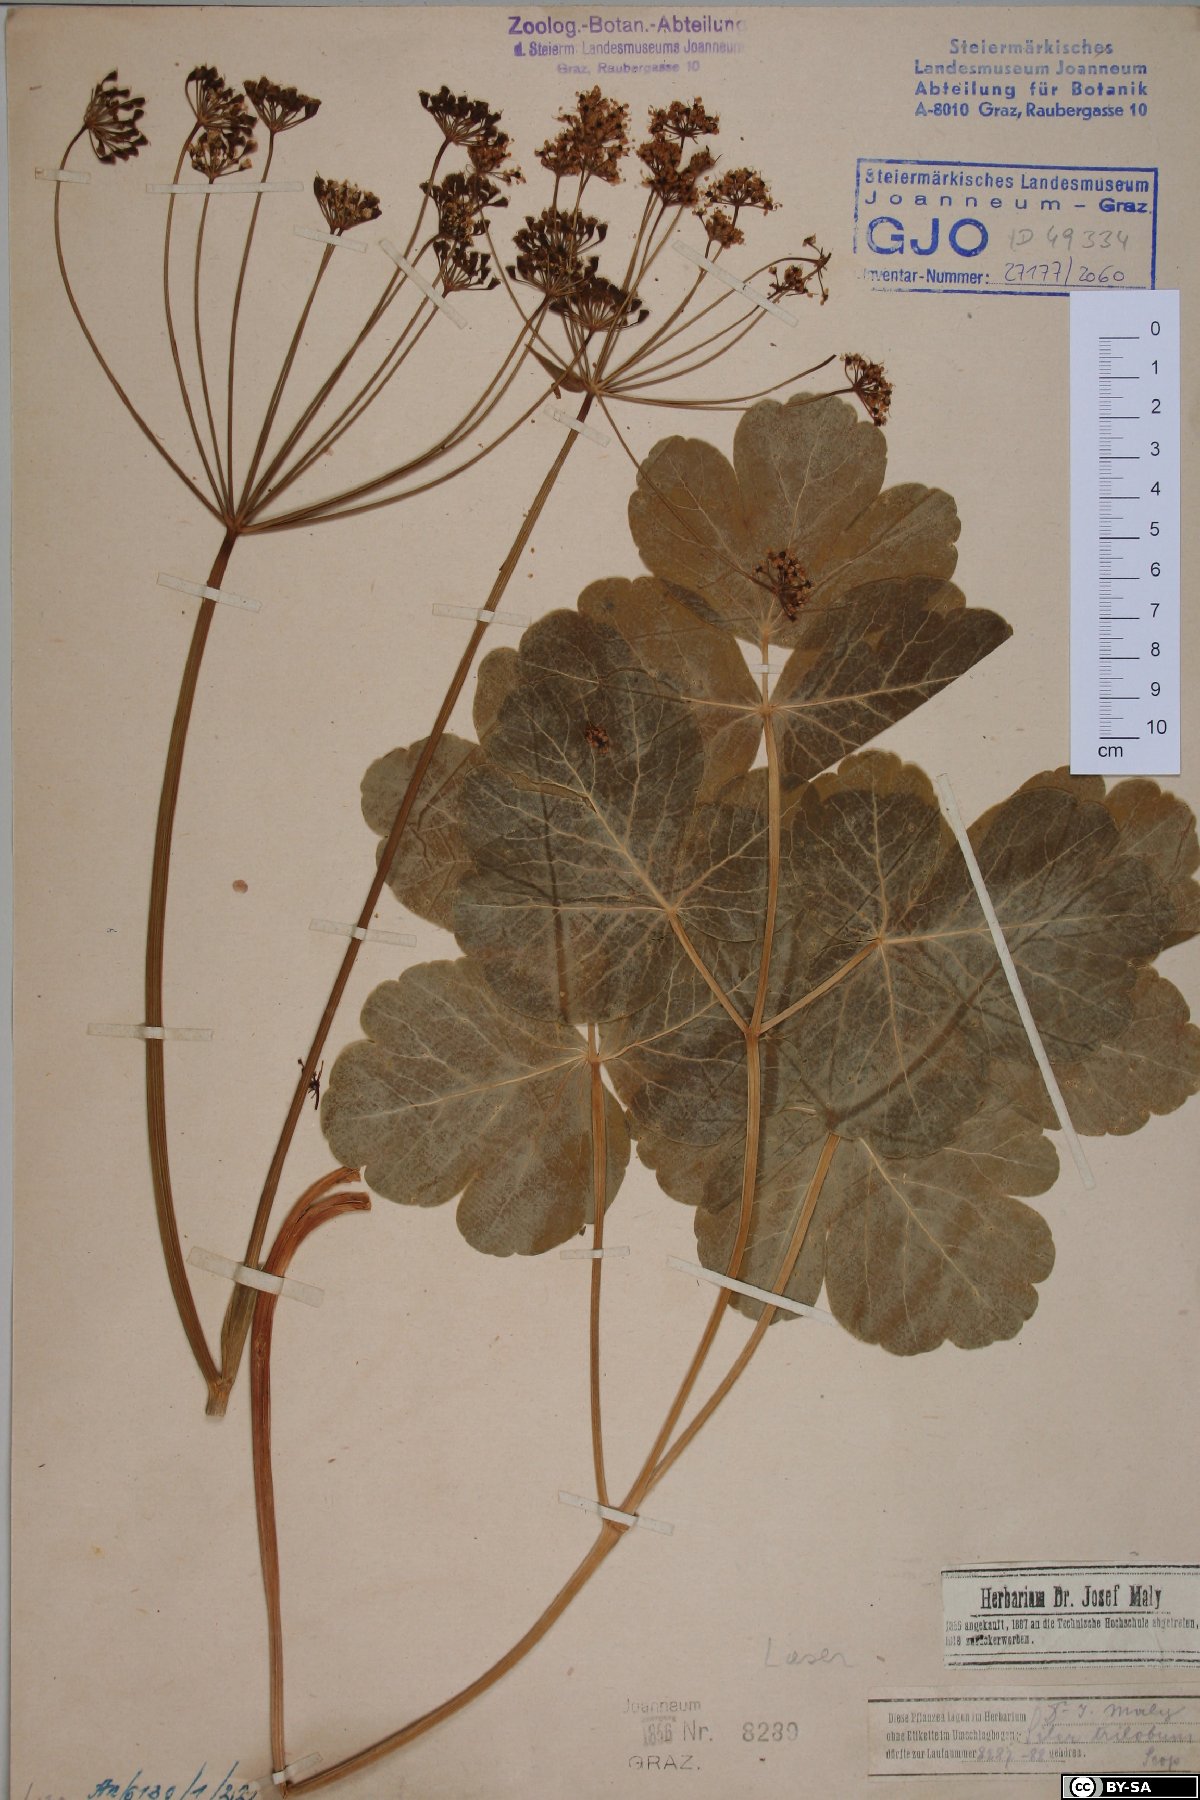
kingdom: Plantae
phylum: Tracheophyta
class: Magnoliopsida
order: Apiales
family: Apiaceae
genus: Laser
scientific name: Laser trilobum
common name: Laser
